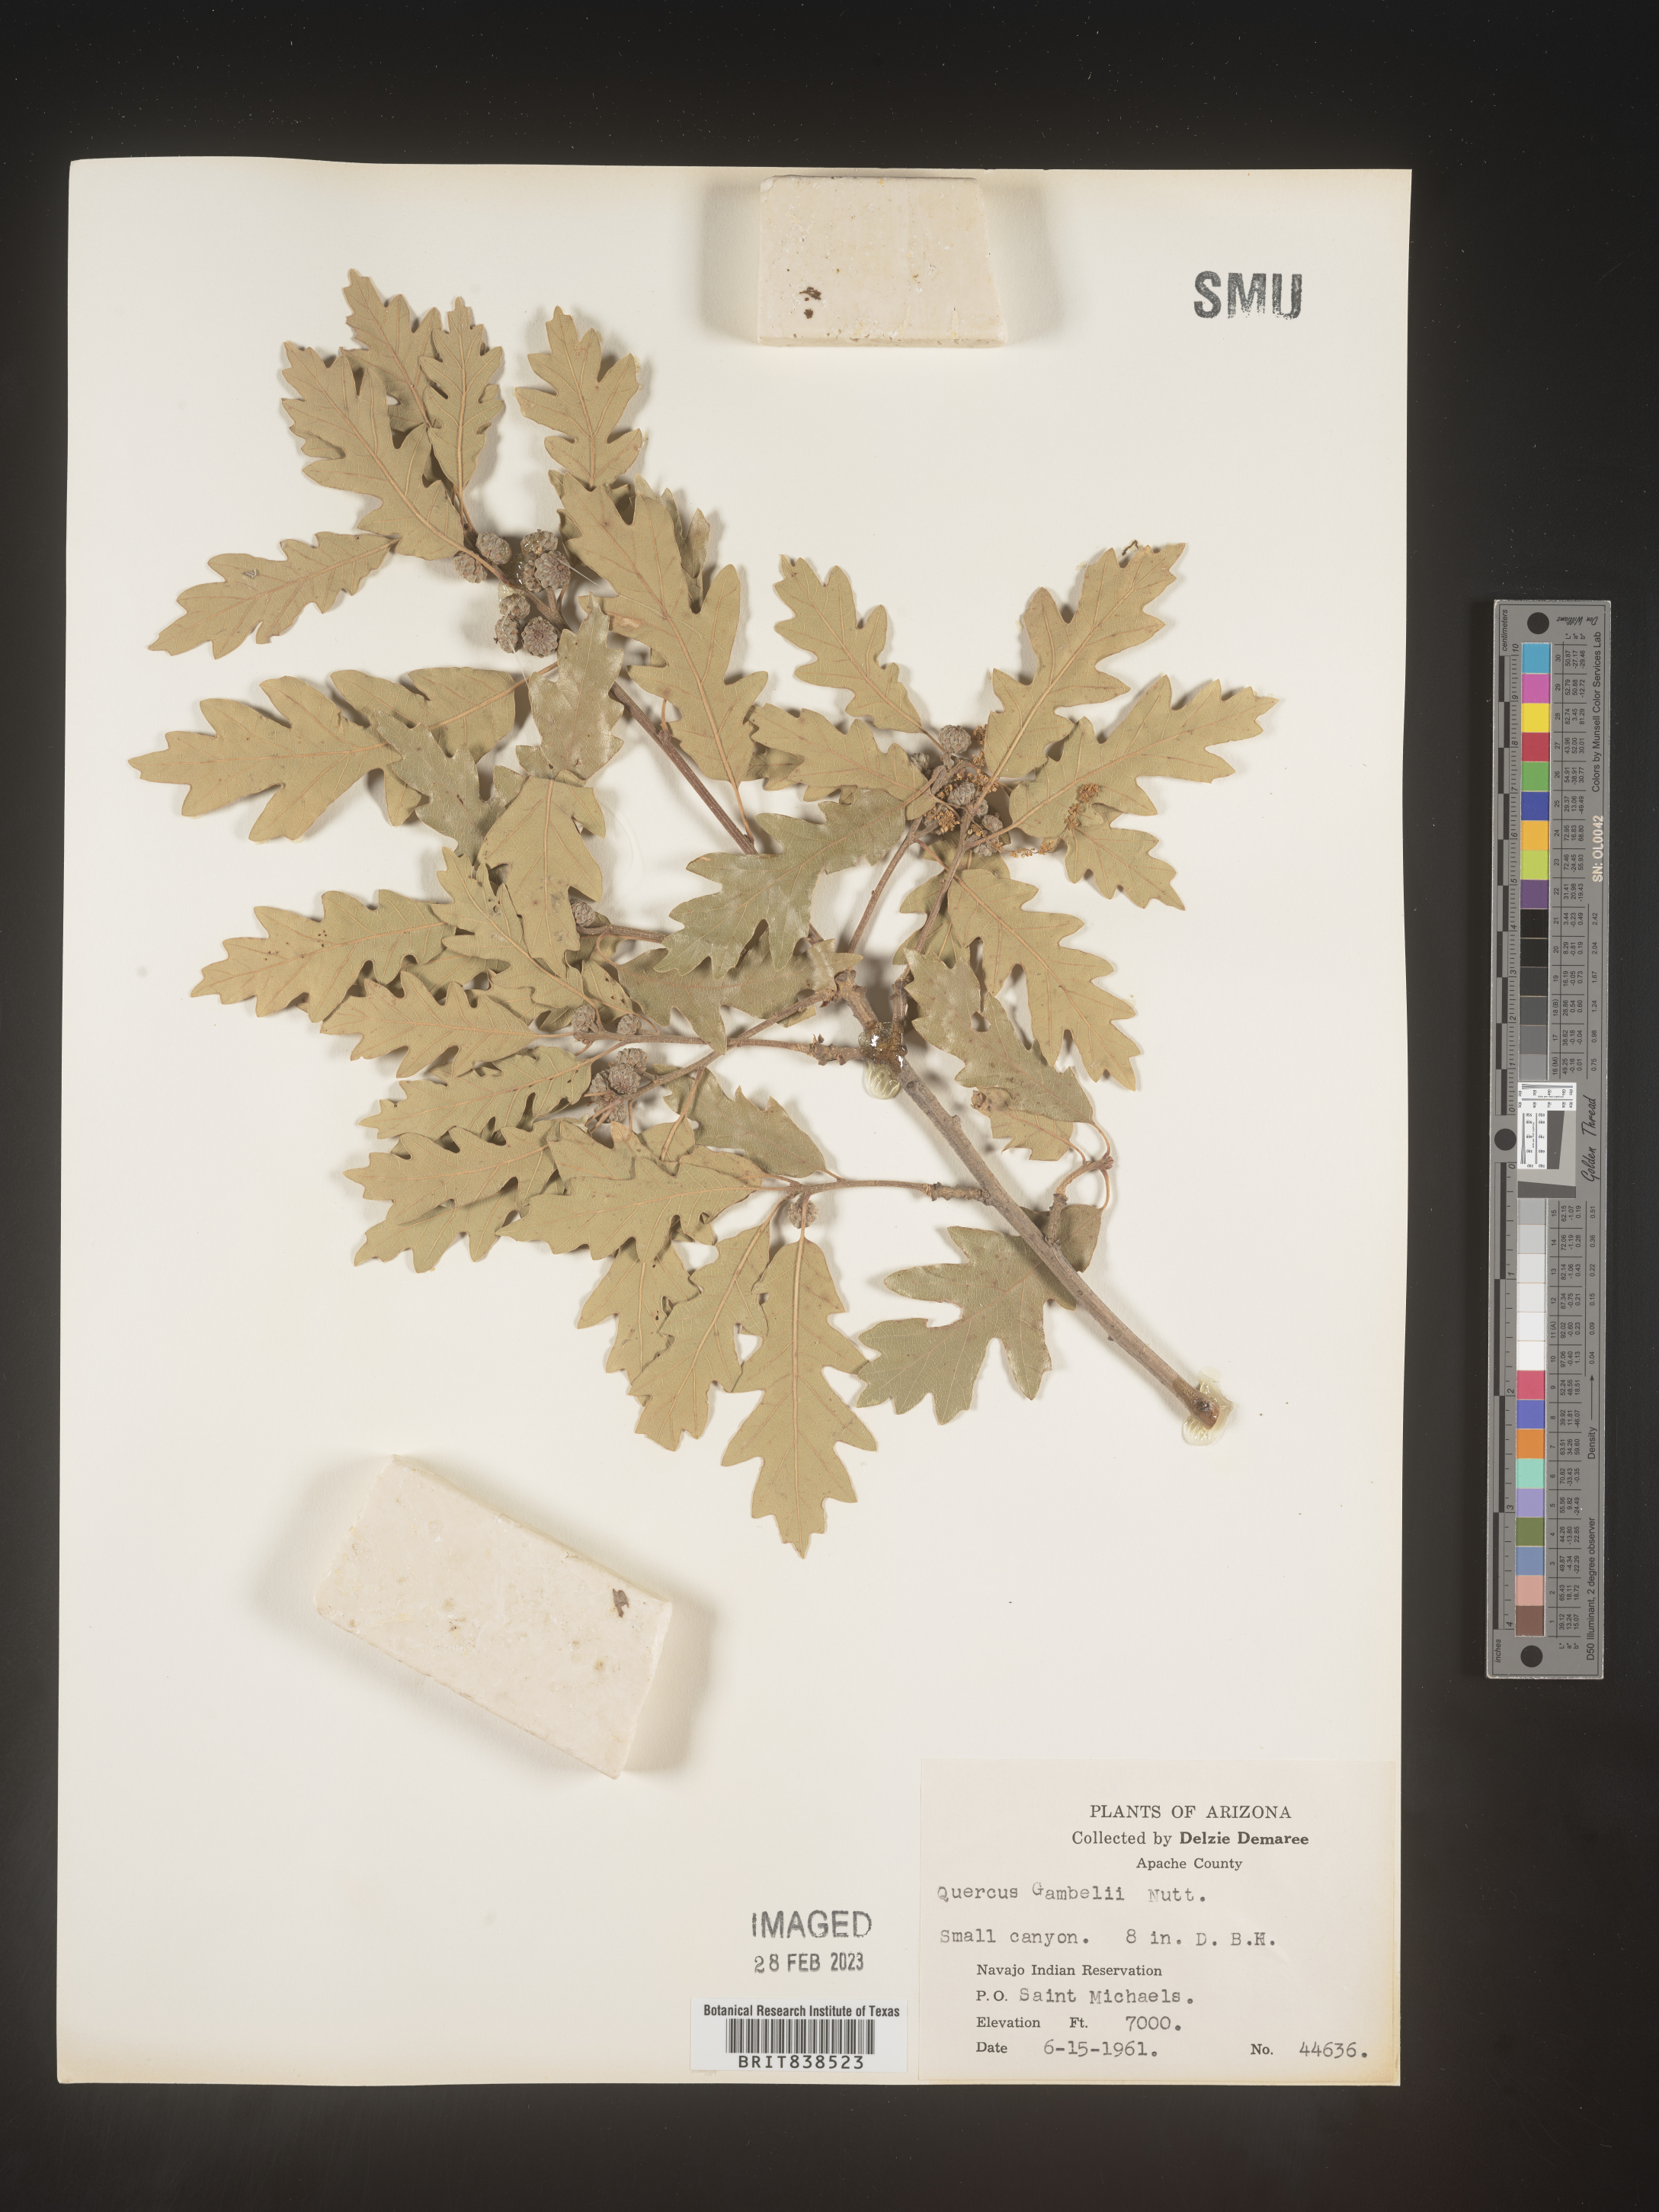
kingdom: Plantae
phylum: Tracheophyta
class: Magnoliopsida
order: Fagales
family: Fagaceae
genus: Quercus
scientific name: Quercus gambelii
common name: Gambel oak
